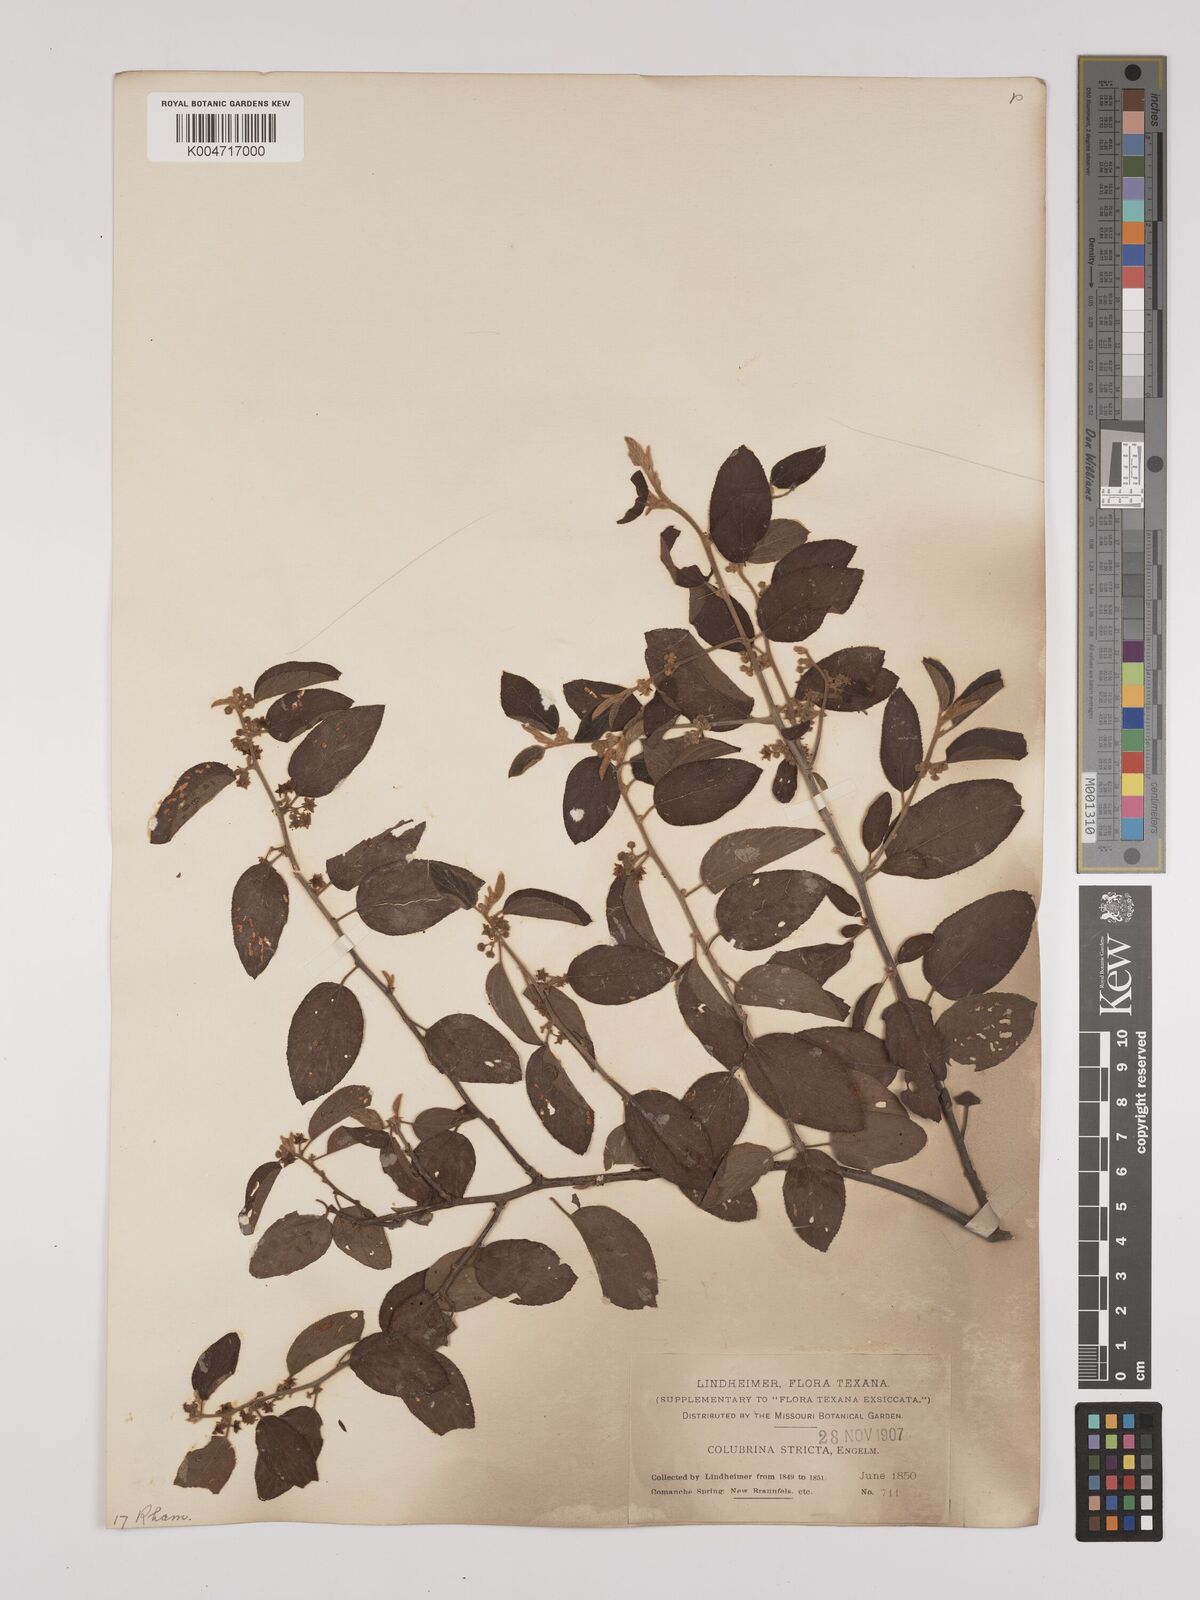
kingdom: Plantae
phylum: Tracheophyta
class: Magnoliopsida
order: Rosales
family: Rhamnaceae
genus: Colubrina
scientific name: Colubrina stricta
